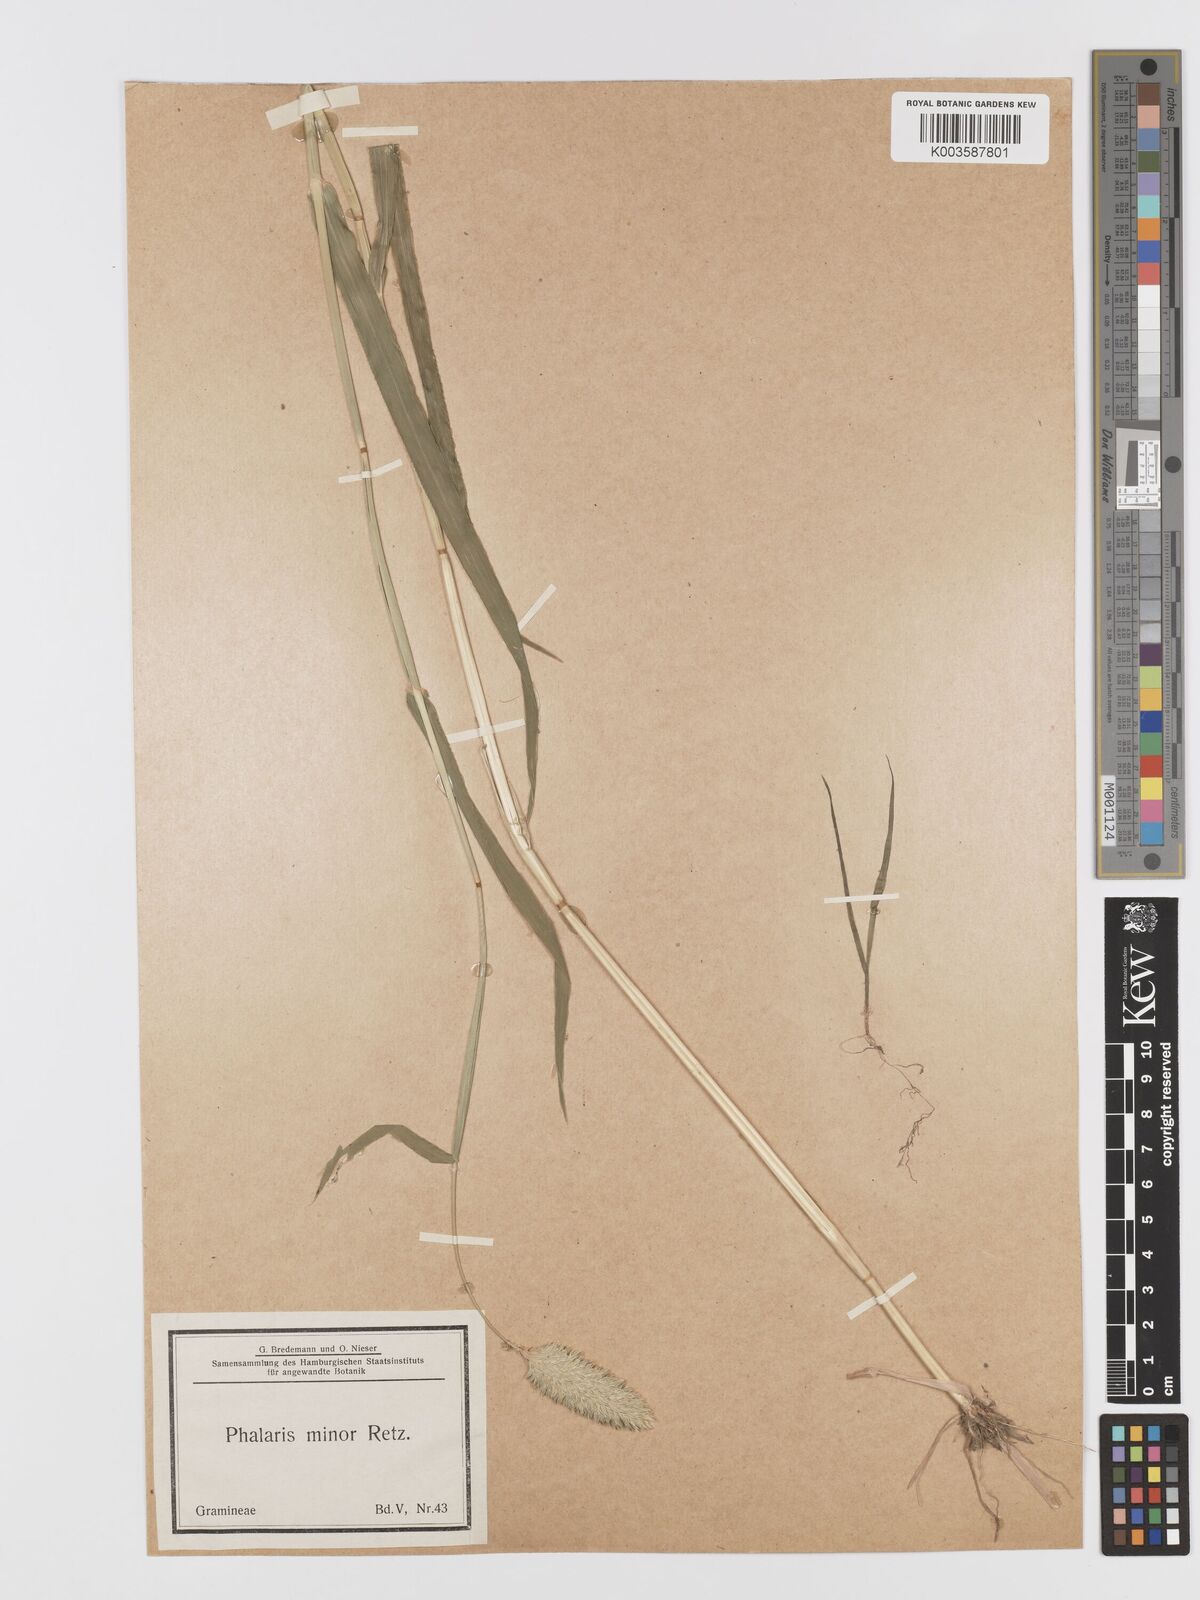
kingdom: Plantae
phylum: Tracheophyta
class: Liliopsida
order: Poales
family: Poaceae
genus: Phalaris
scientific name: Phalaris minor
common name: Littleseed canarygrass
